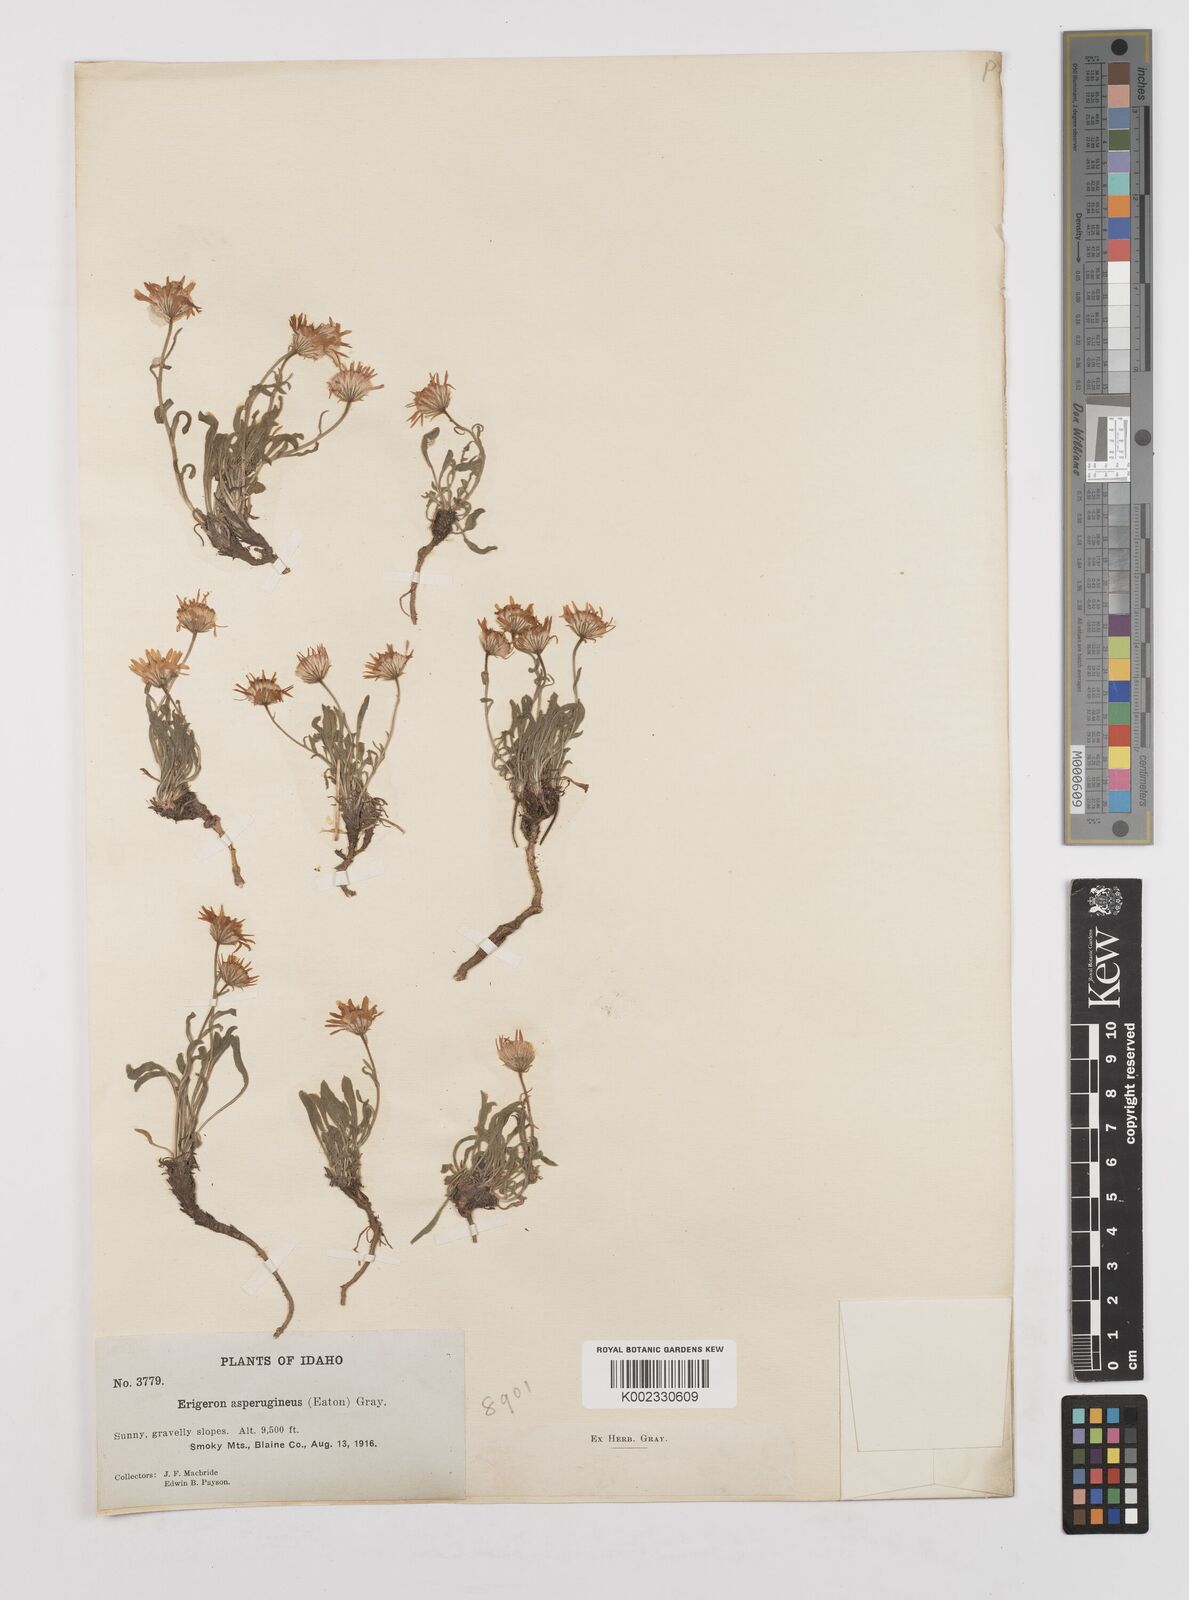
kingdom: Plantae
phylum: Tracheophyta
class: Magnoliopsida
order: Asterales
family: Asteraceae
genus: Erigeron
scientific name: Erigeron asperugineus
